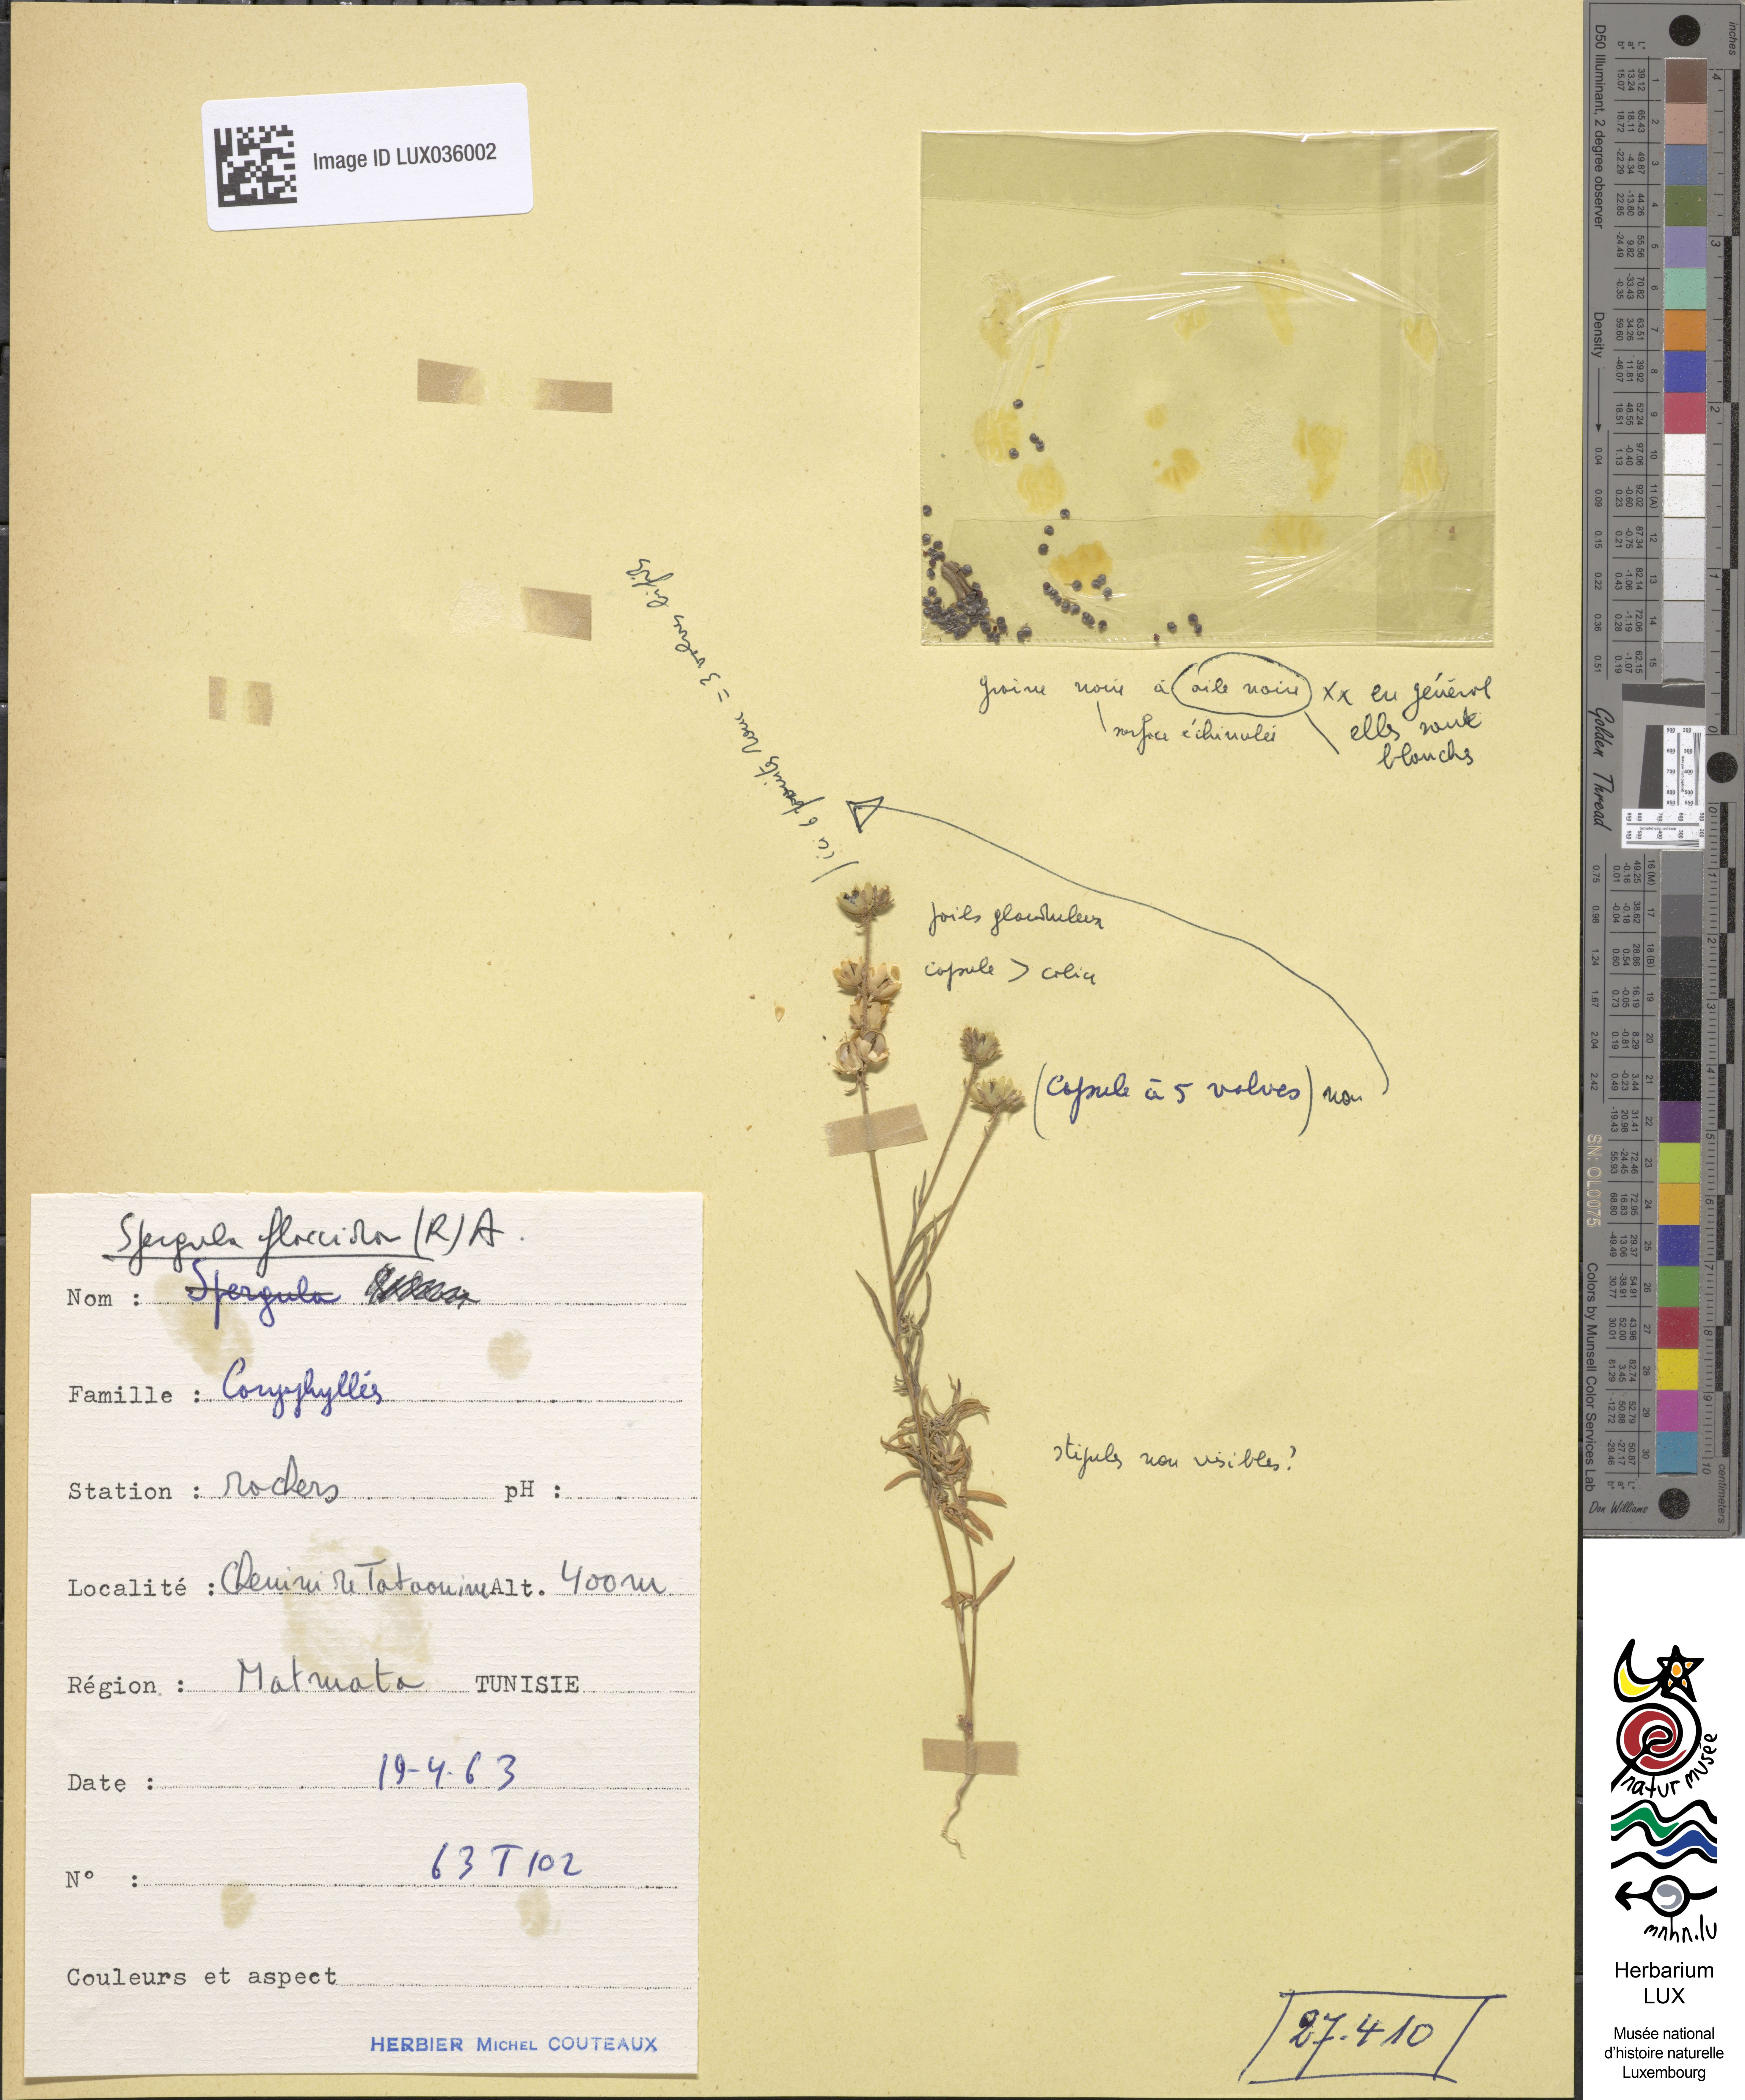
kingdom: Plantae
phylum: Tracheophyta
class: Magnoliopsida
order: Caryophyllales
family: Caryophyllaceae
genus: Spergularia
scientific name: Spergularia flaccida
